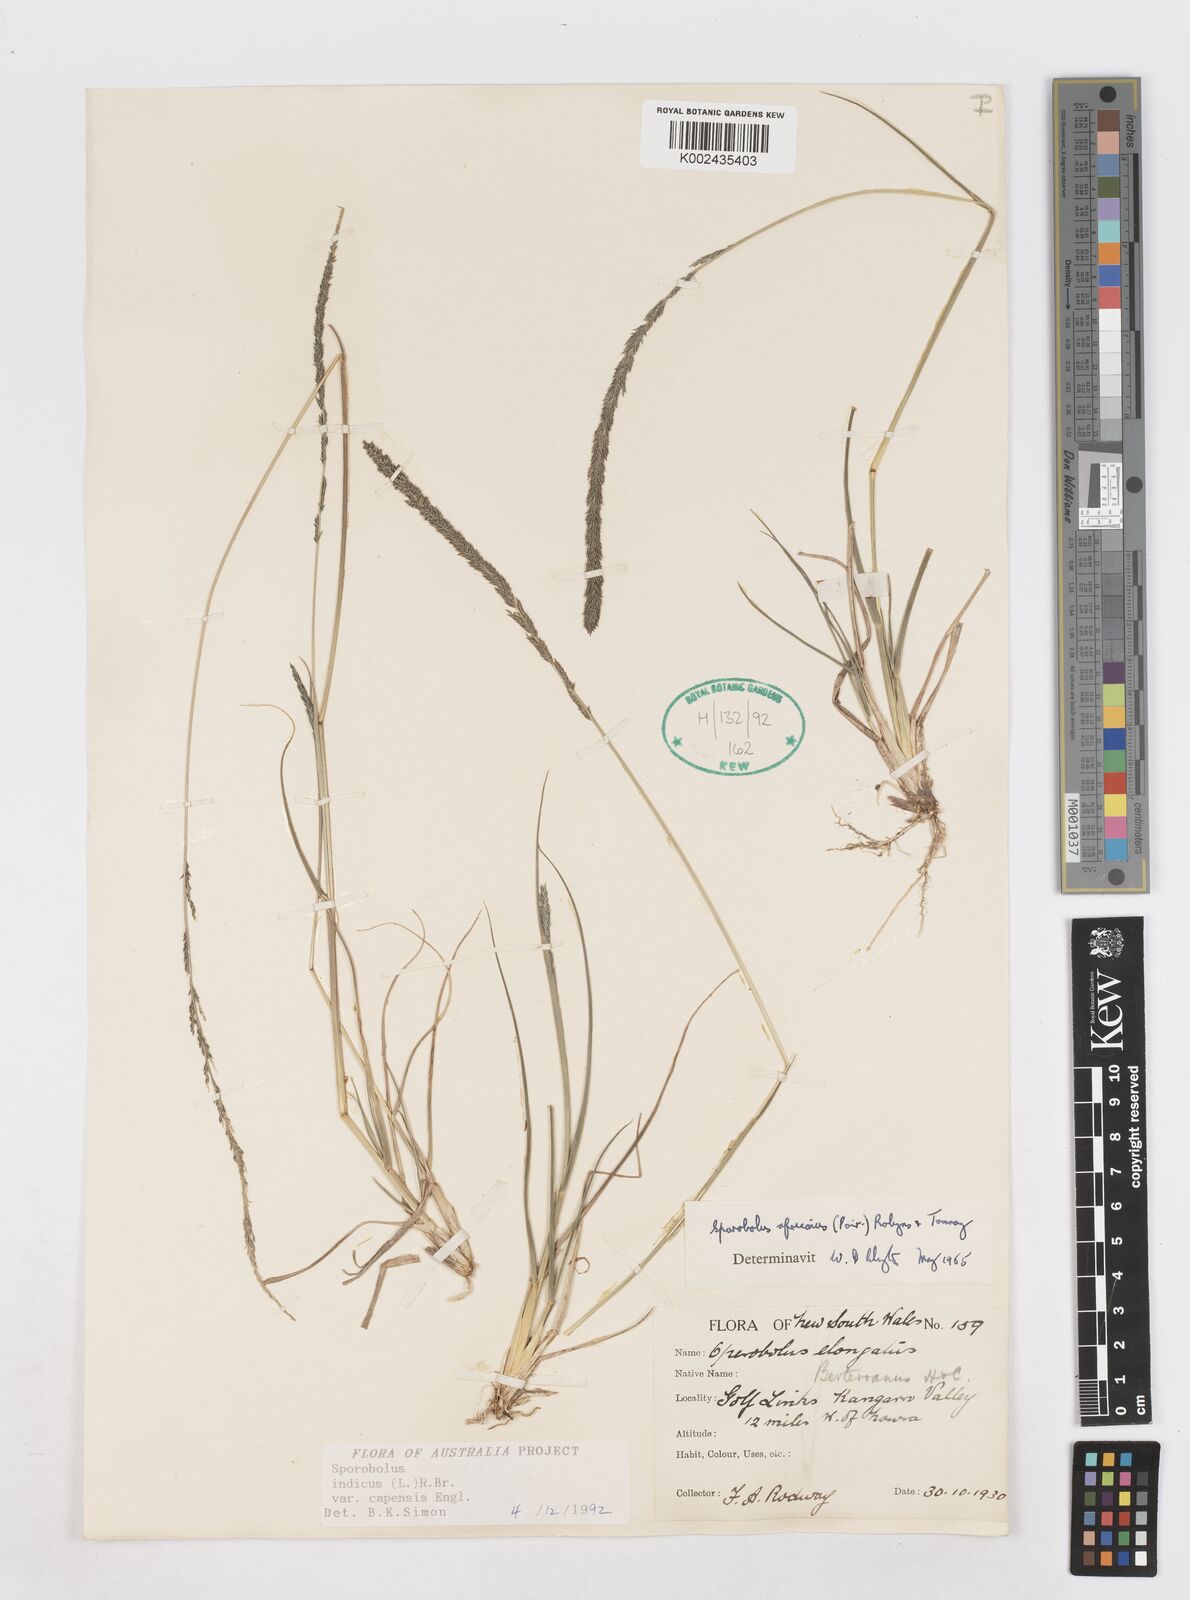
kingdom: Plantae
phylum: Tracheophyta
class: Liliopsida
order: Poales
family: Poaceae
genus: Sporobolus
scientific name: Sporobolus africanus
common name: African dropseed
